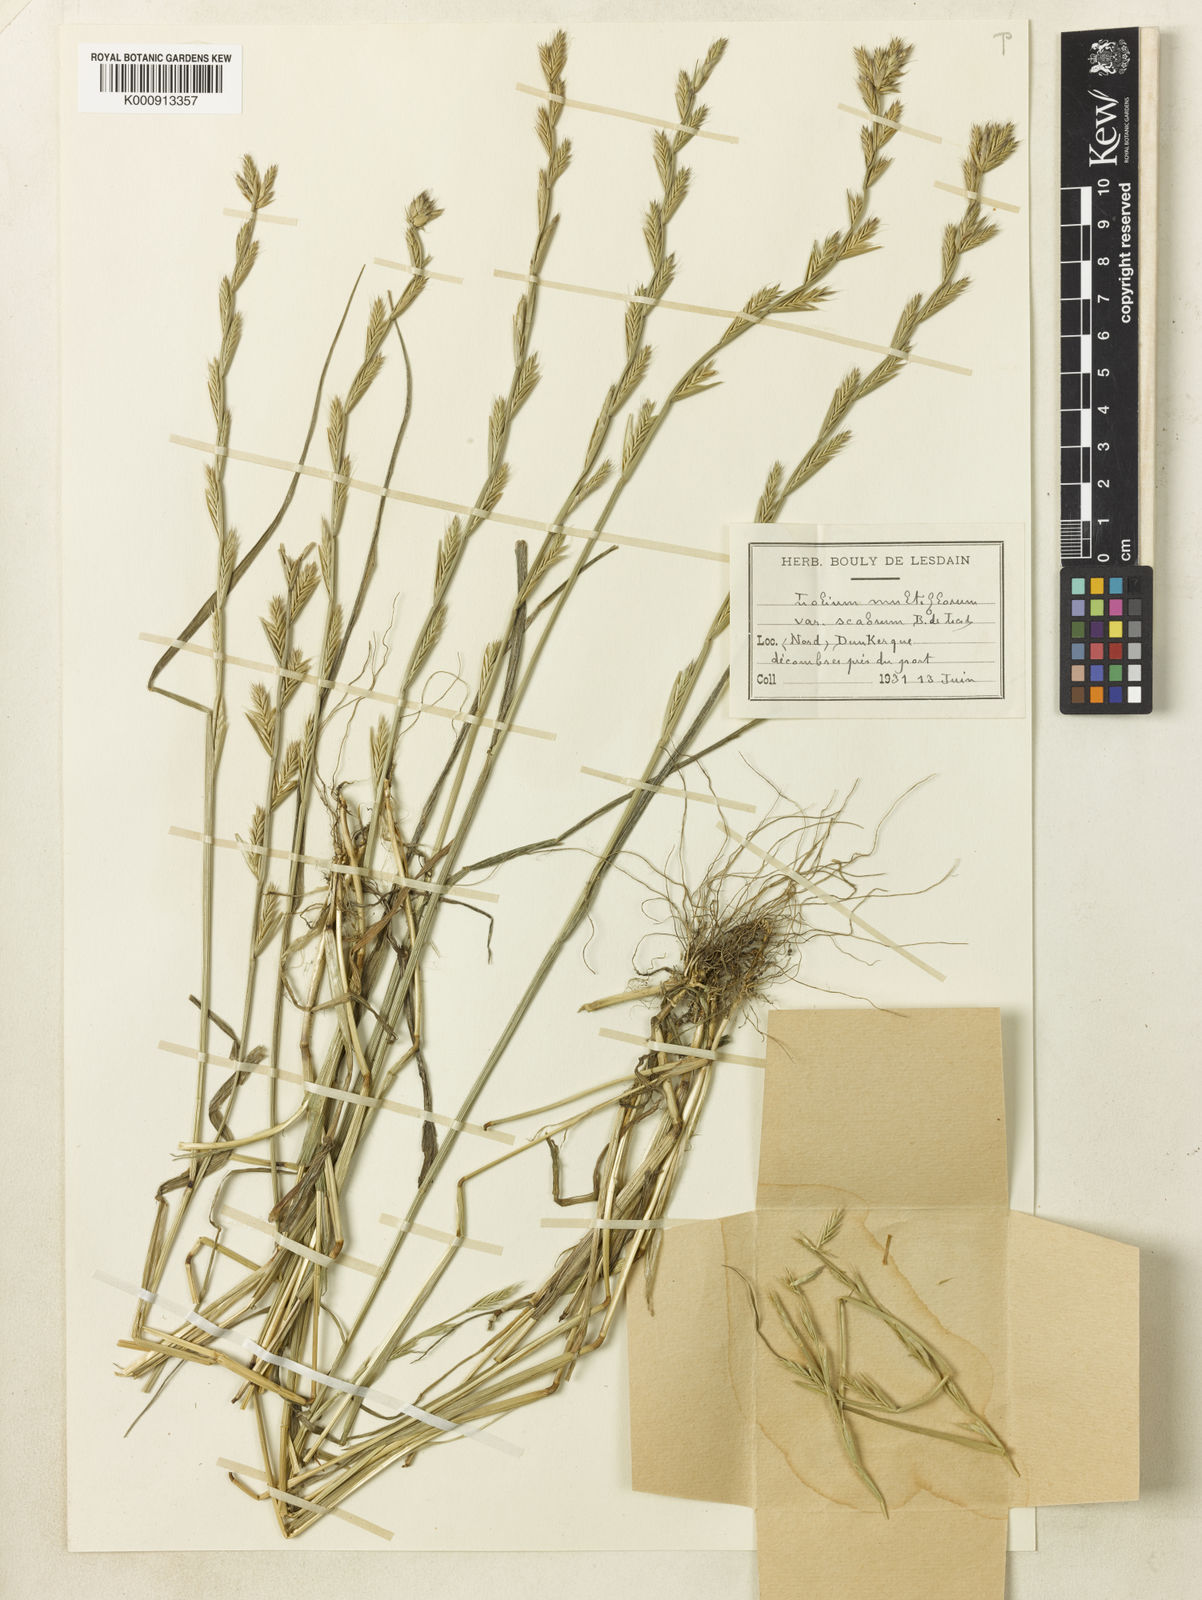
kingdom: Plantae
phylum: Tracheophyta
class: Liliopsida
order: Poales
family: Poaceae
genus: Lolium
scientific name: Lolium multiflorum
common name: Annual ryegrass
